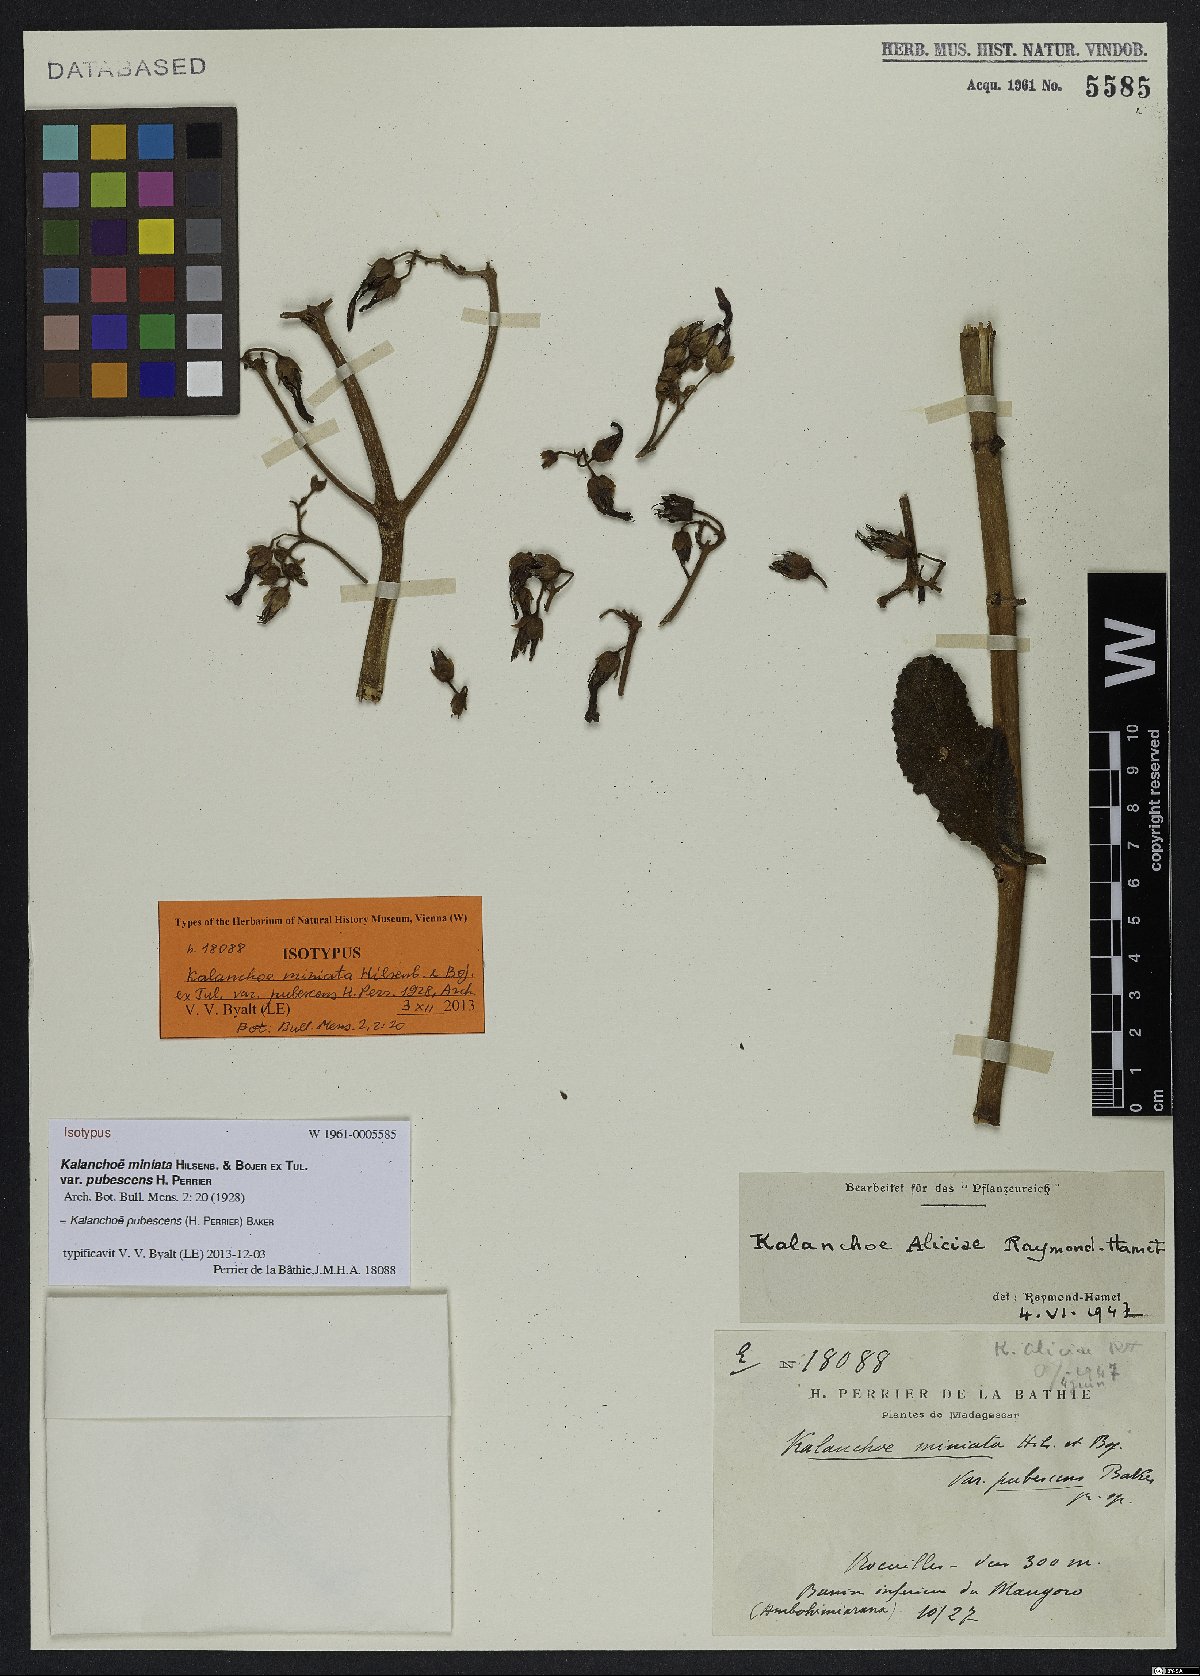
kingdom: Plantae
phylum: Tracheophyta
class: Magnoliopsida
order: Saxifragales
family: Crassulaceae
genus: Kalanchoe
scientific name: Kalanchoe pubescens
